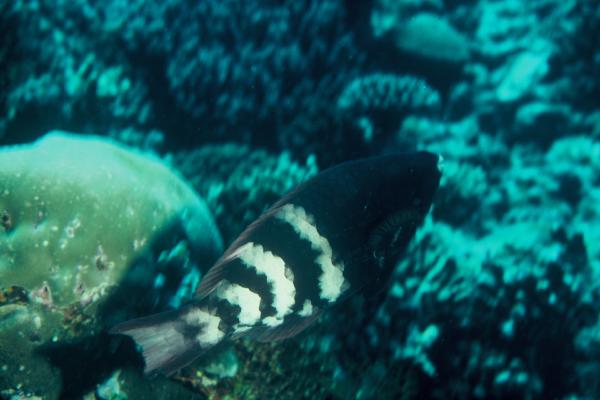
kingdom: Animalia
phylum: Chordata
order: Perciformes
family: Scaridae
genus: Scarus
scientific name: Scarus caudofasciatus
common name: Redbarred parrotfish
